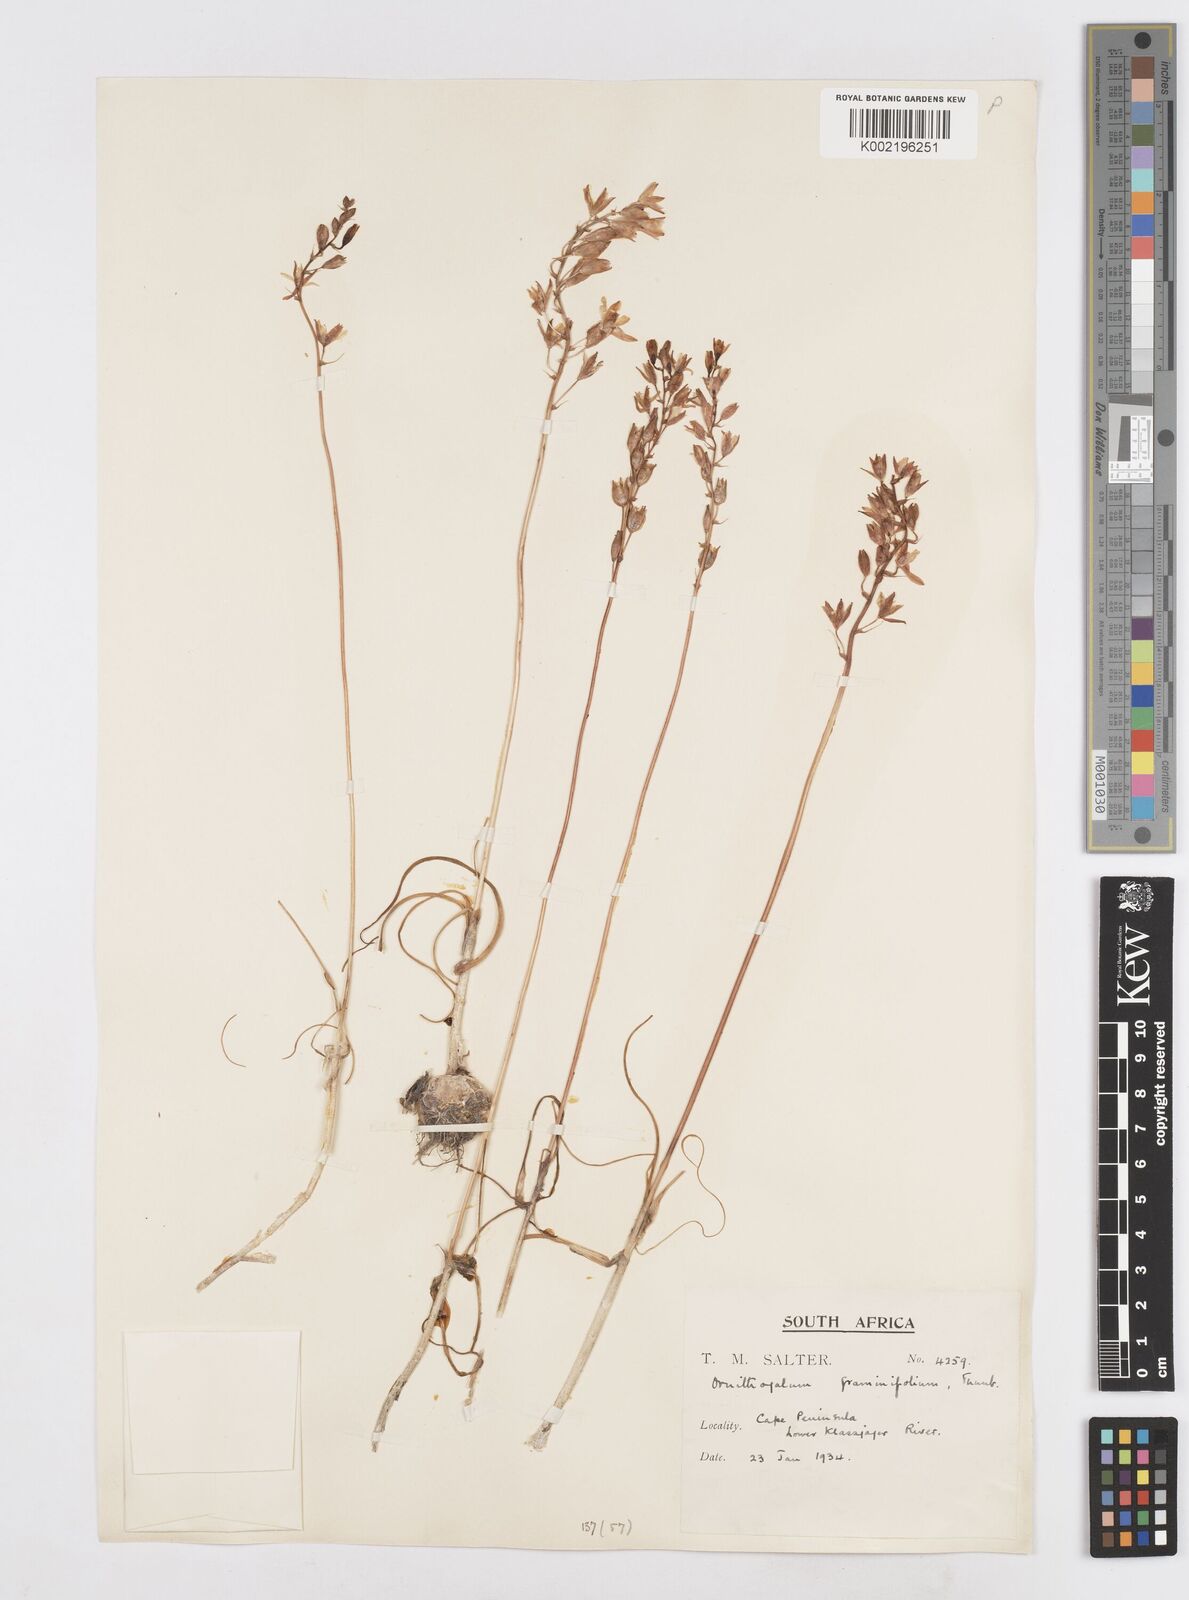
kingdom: Plantae
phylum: Tracheophyta
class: Liliopsida
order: Asparagales
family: Asparagaceae
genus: Ornithogalum
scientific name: Ornithogalum graminifolium
